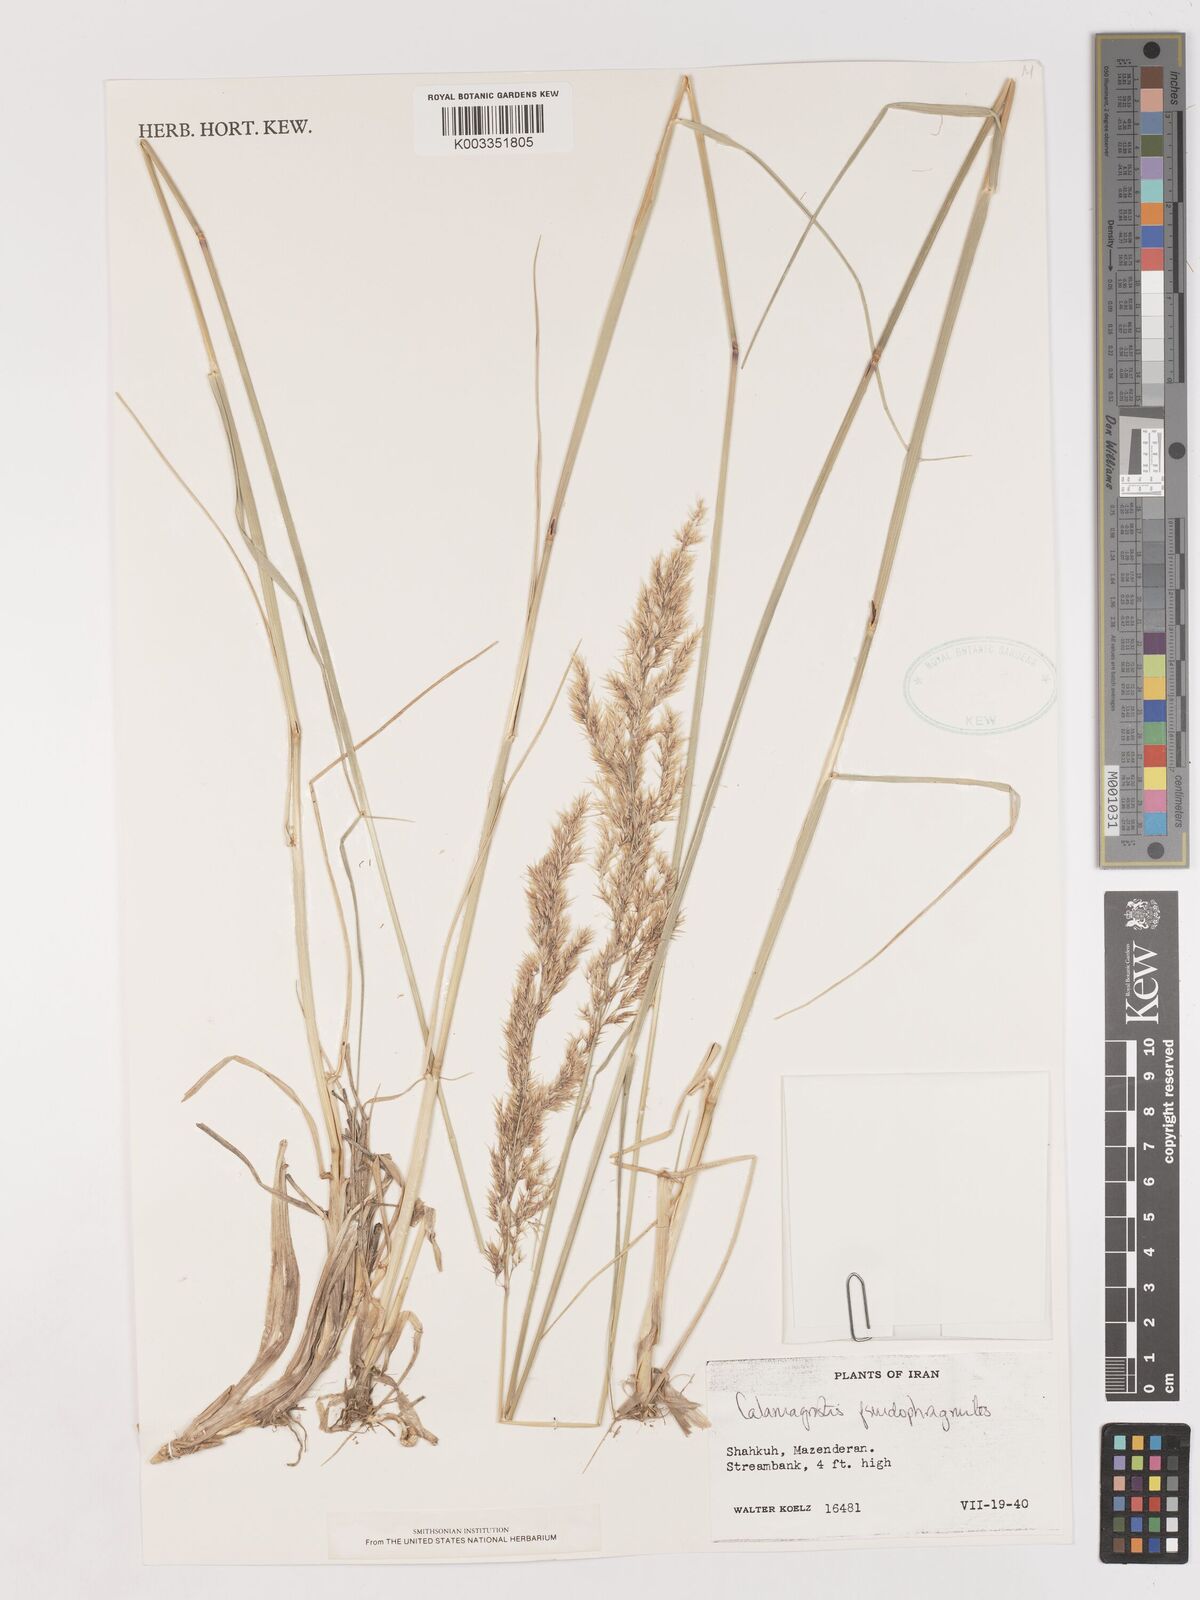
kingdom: Plantae
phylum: Tracheophyta
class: Liliopsida
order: Poales
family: Poaceae
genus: Calamagrostis
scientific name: Calamagrostis pseudophragmites
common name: Coastal small-reed
